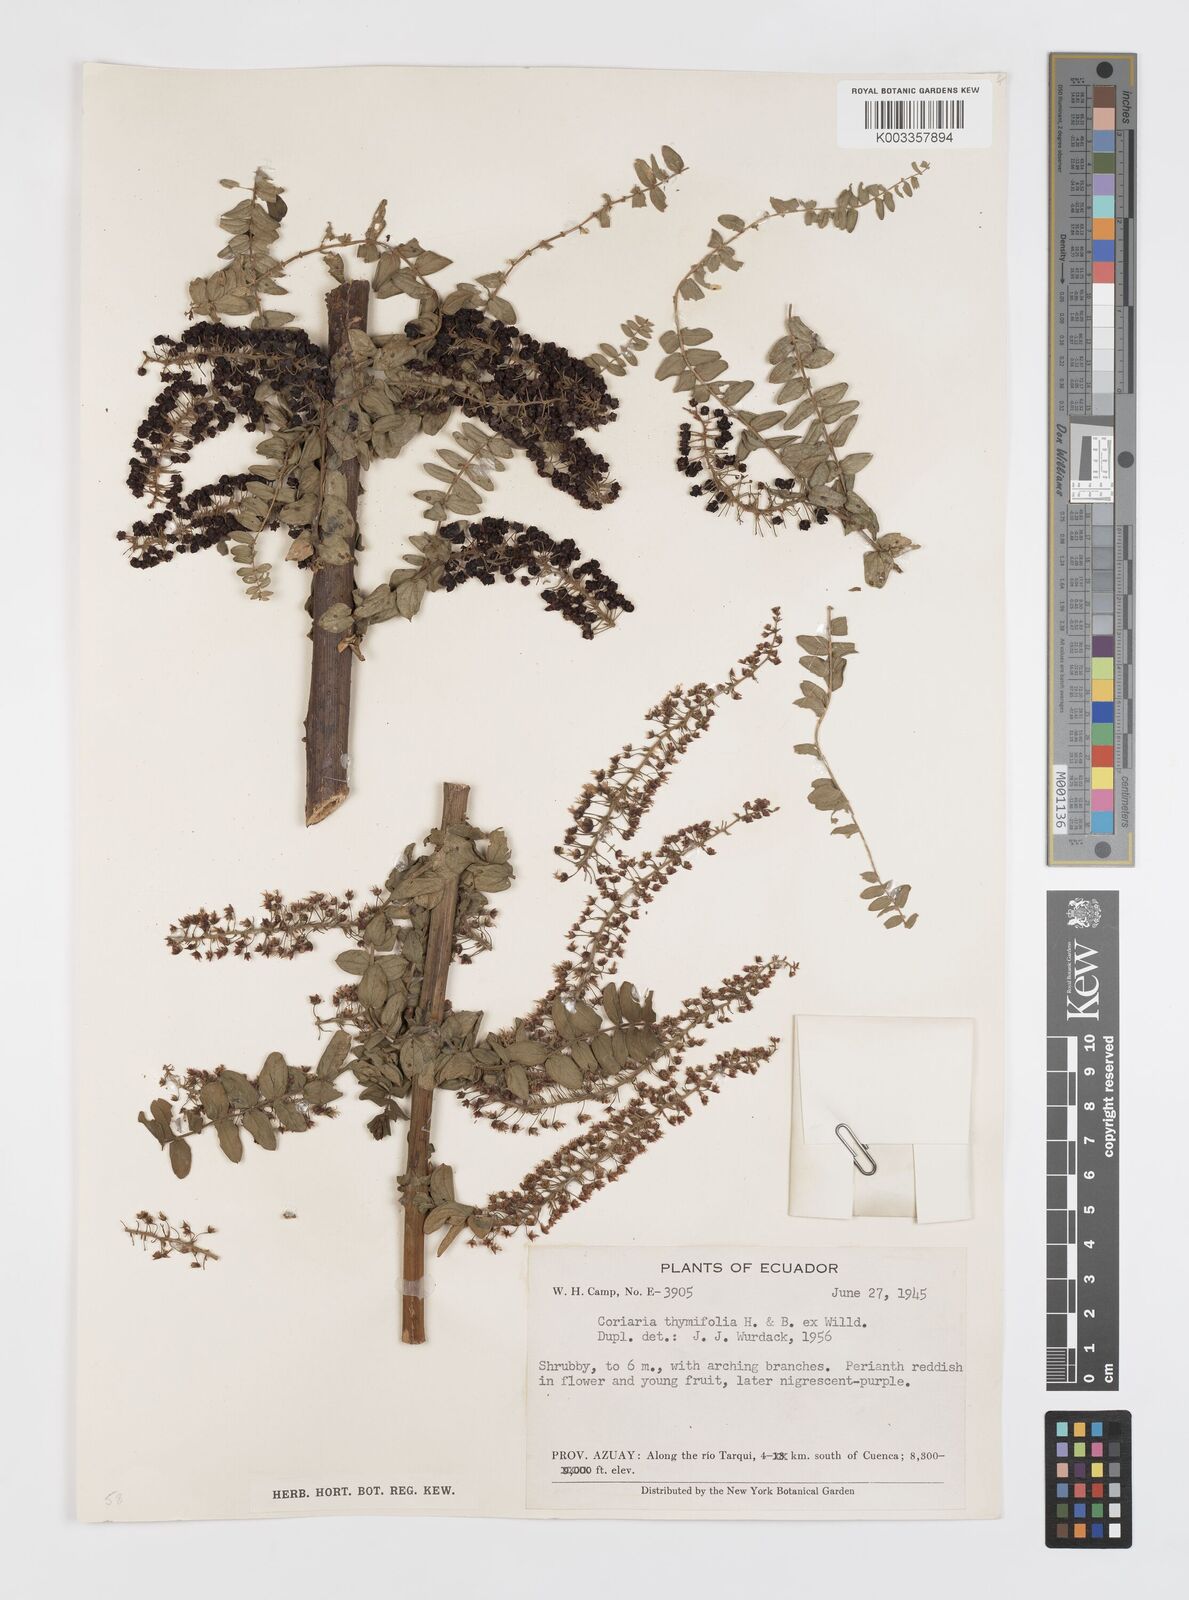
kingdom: Plantae
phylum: Tracheophyta
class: Magnoliopsida
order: Cucurbitales
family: Coriariaceae
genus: Coriaria
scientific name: Coriaria microphylla
